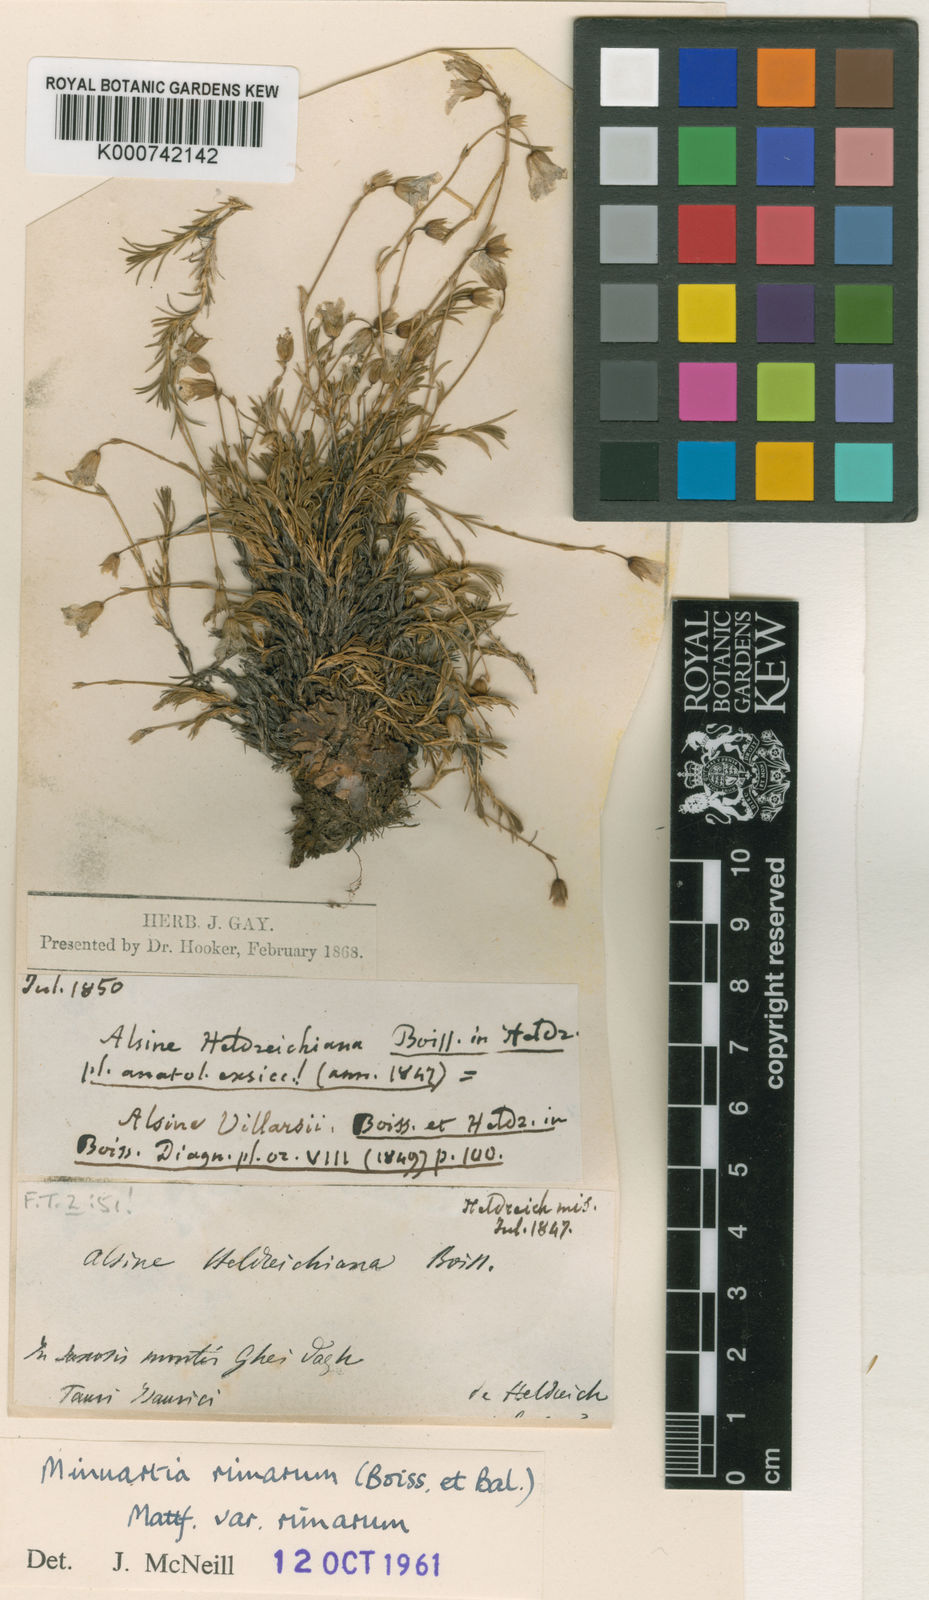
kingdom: Plantae
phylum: Tracheophyta
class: Magnoliopsida
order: Caryophyllales
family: Caryophyllaceae
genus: Sabulina
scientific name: Sabulina rimarum
